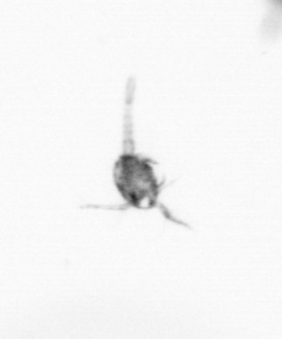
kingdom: Animalia
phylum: Arthropoda
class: Copepoda
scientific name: Copepoda
